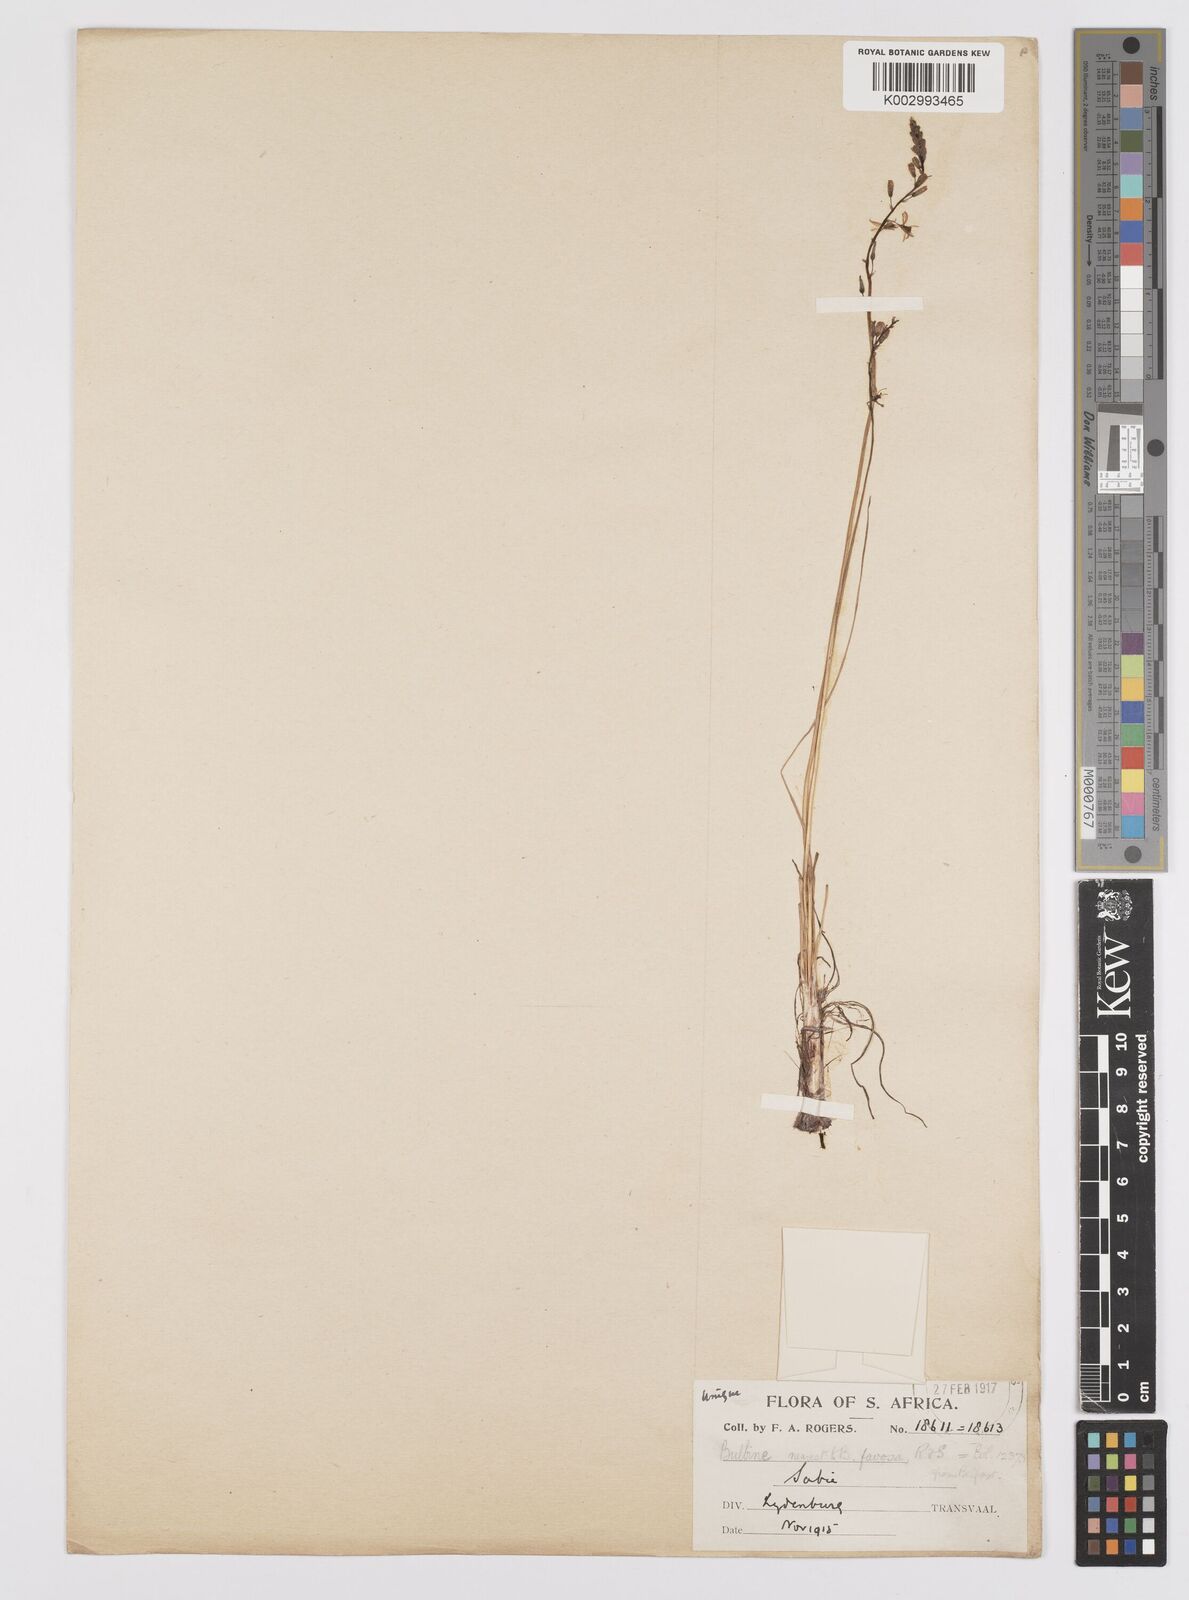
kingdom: Plantae
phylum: Tracheophyta
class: Liliopsida
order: Asparagales
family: Asphodelaceae
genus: Bulbine
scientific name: Bulbine favosa
